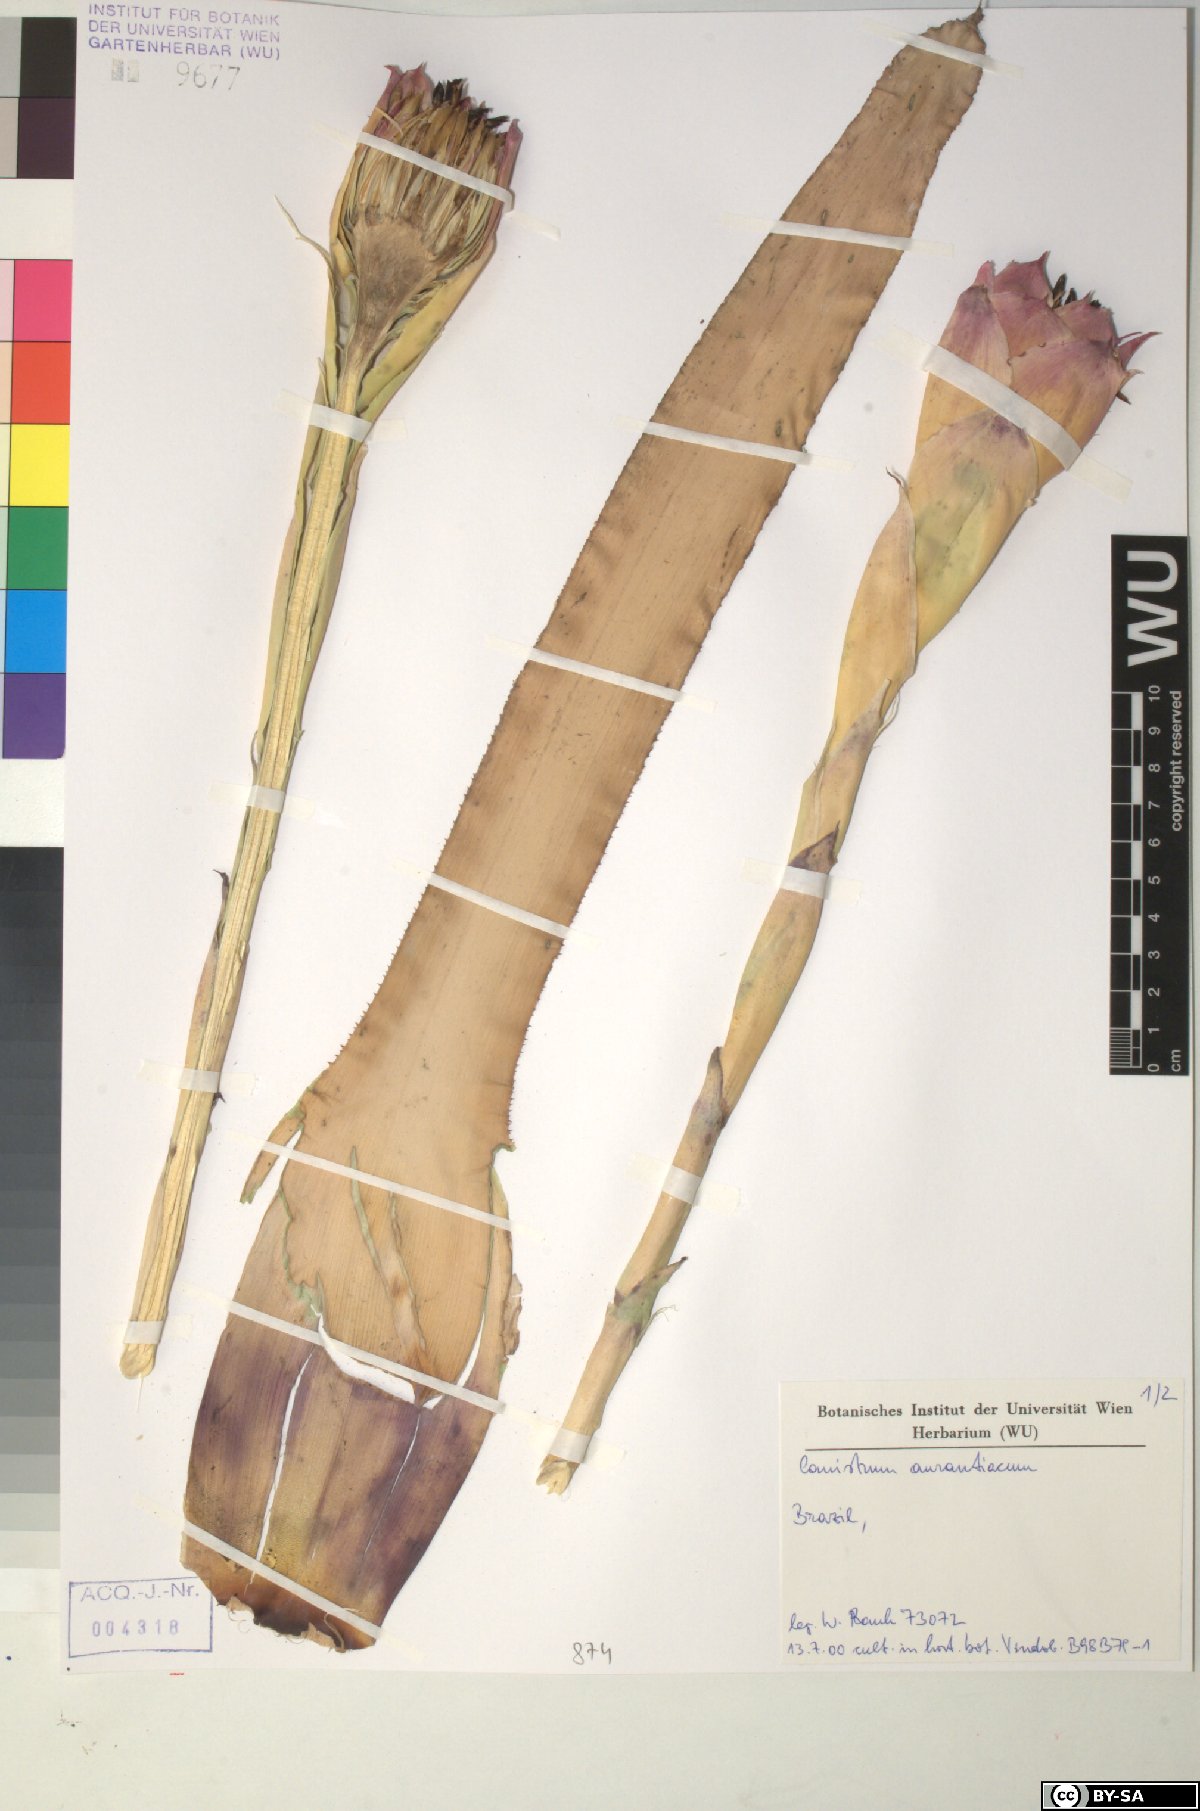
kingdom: Plantae
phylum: Tracheophyta
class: Liliopsida
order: Poales
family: Bromeliaceae
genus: Canistrum
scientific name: Canistrum aurantiacum
